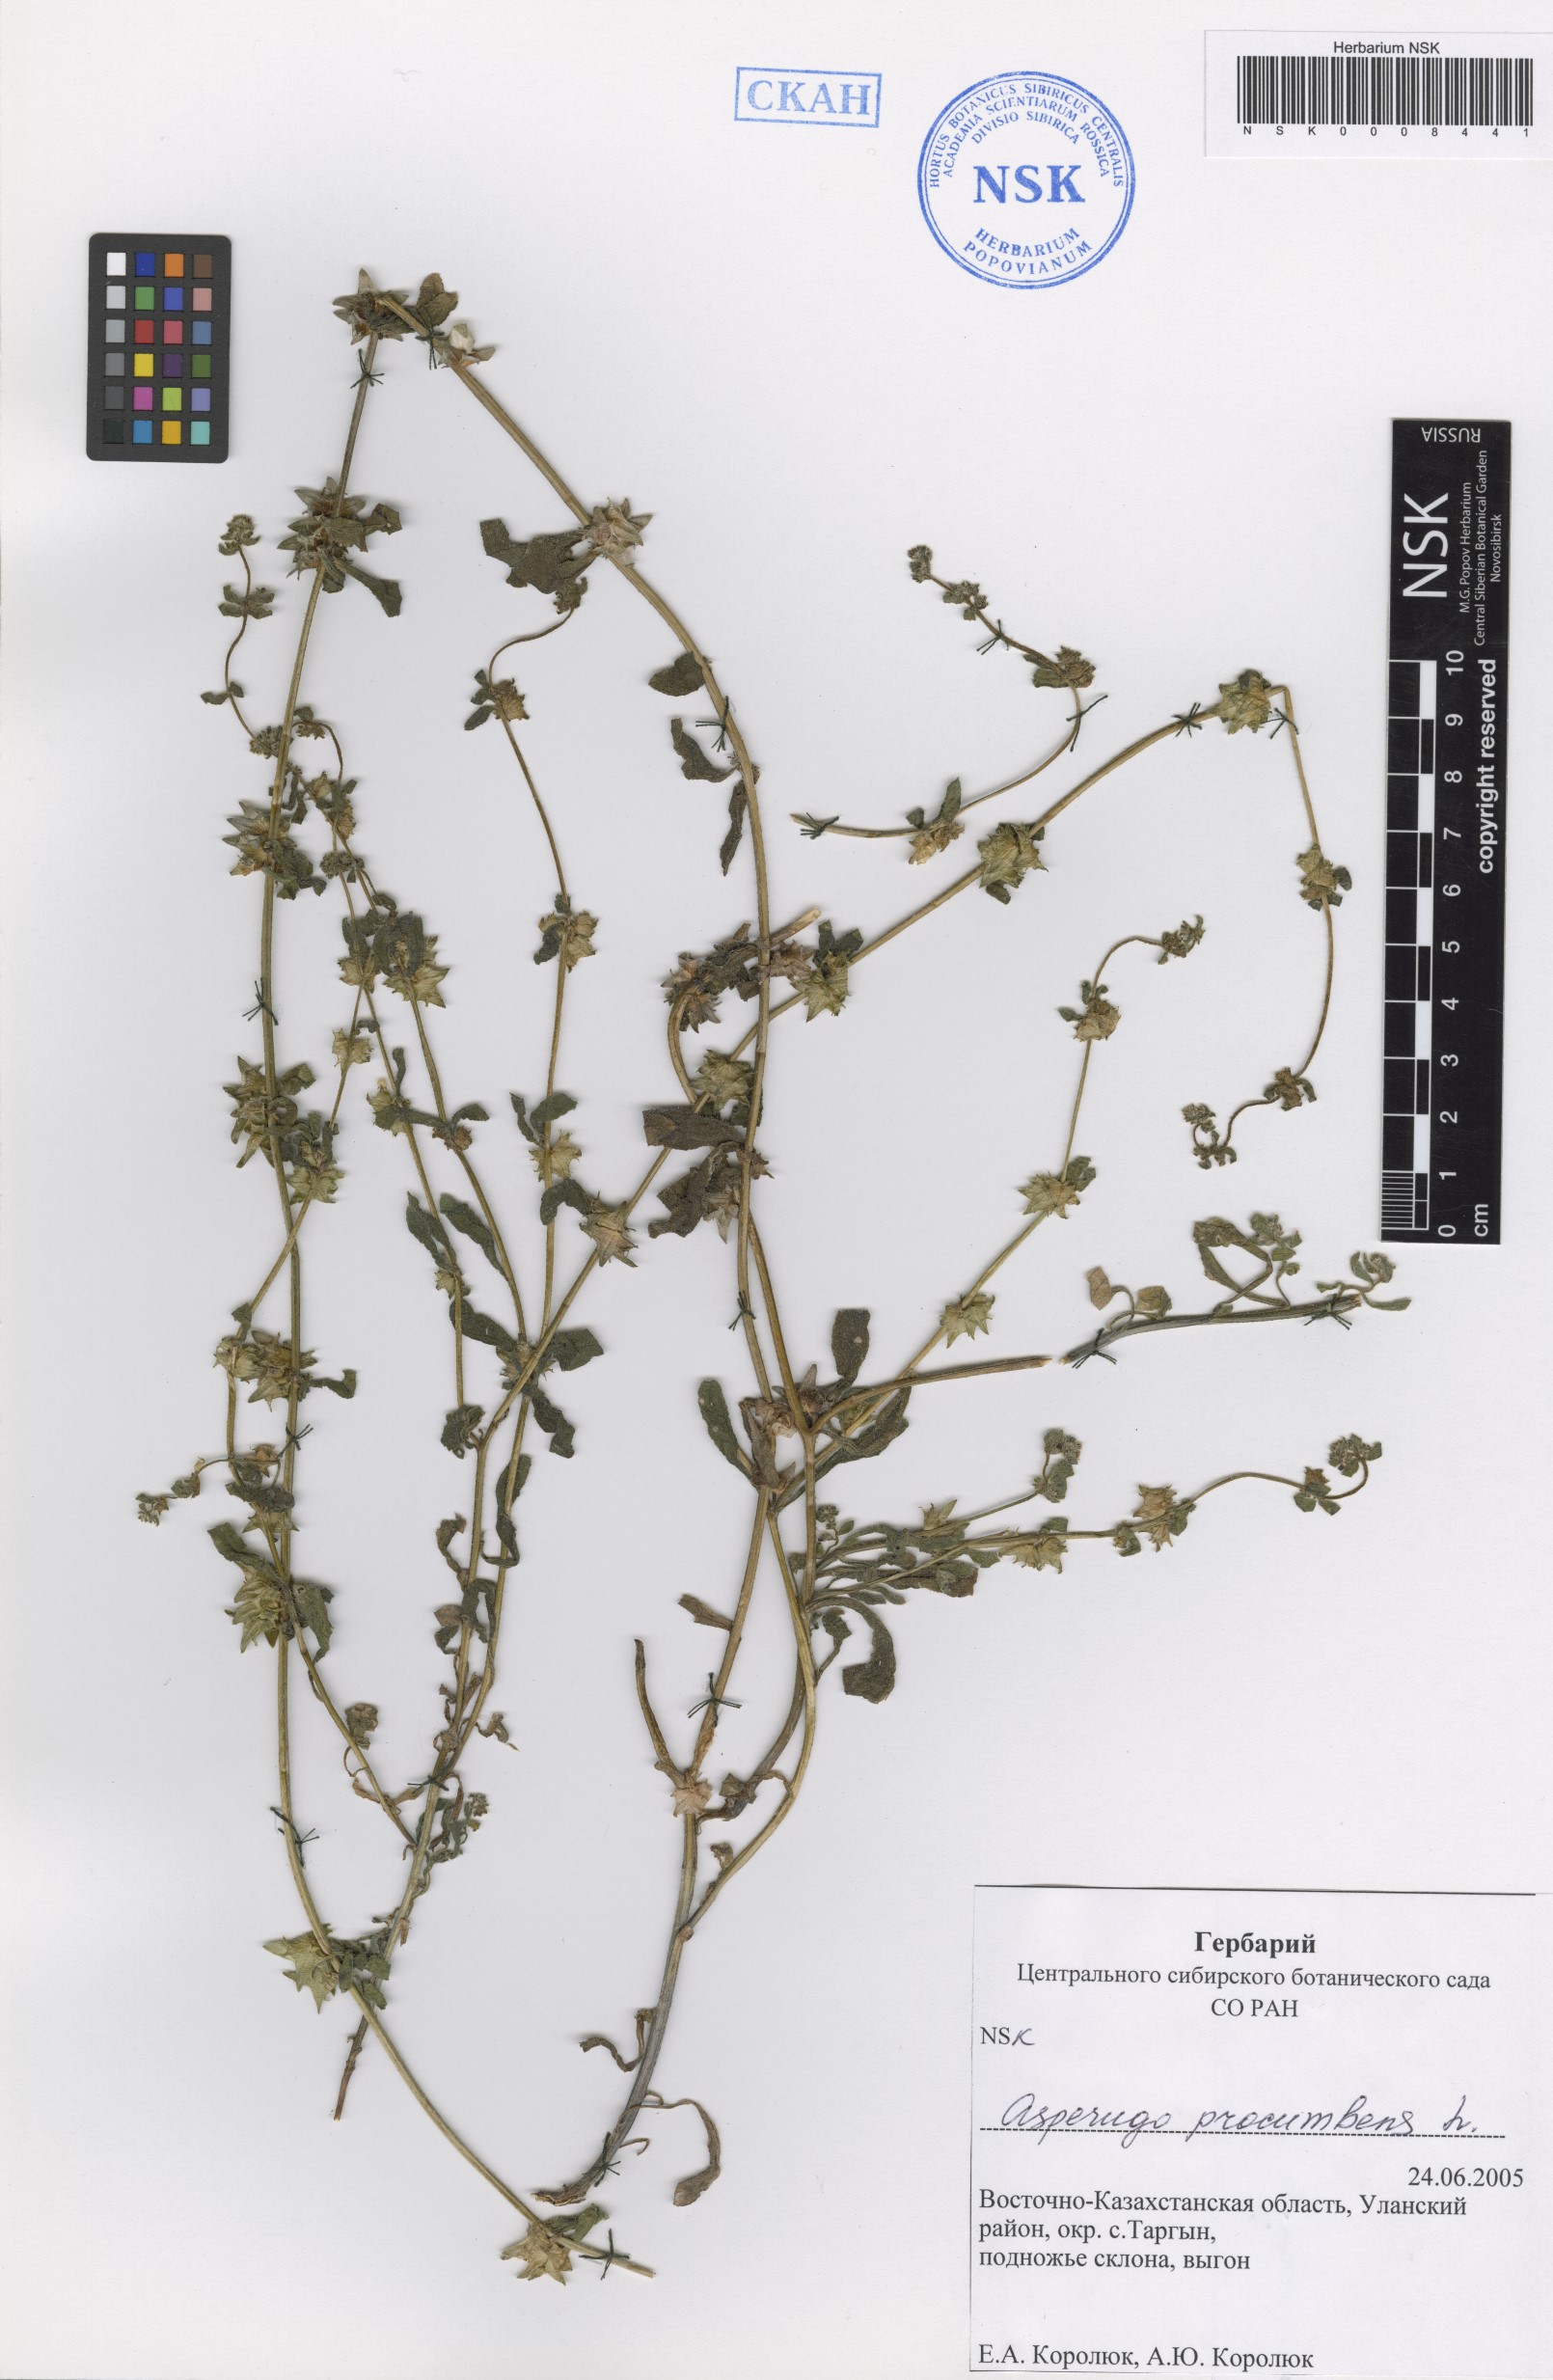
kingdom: Plantae
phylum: Tracheophyta
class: Magnoliopsida
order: Boraginales
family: Boraginaceae
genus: Asperugo
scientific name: Asperugo procumbens
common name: Madwort
